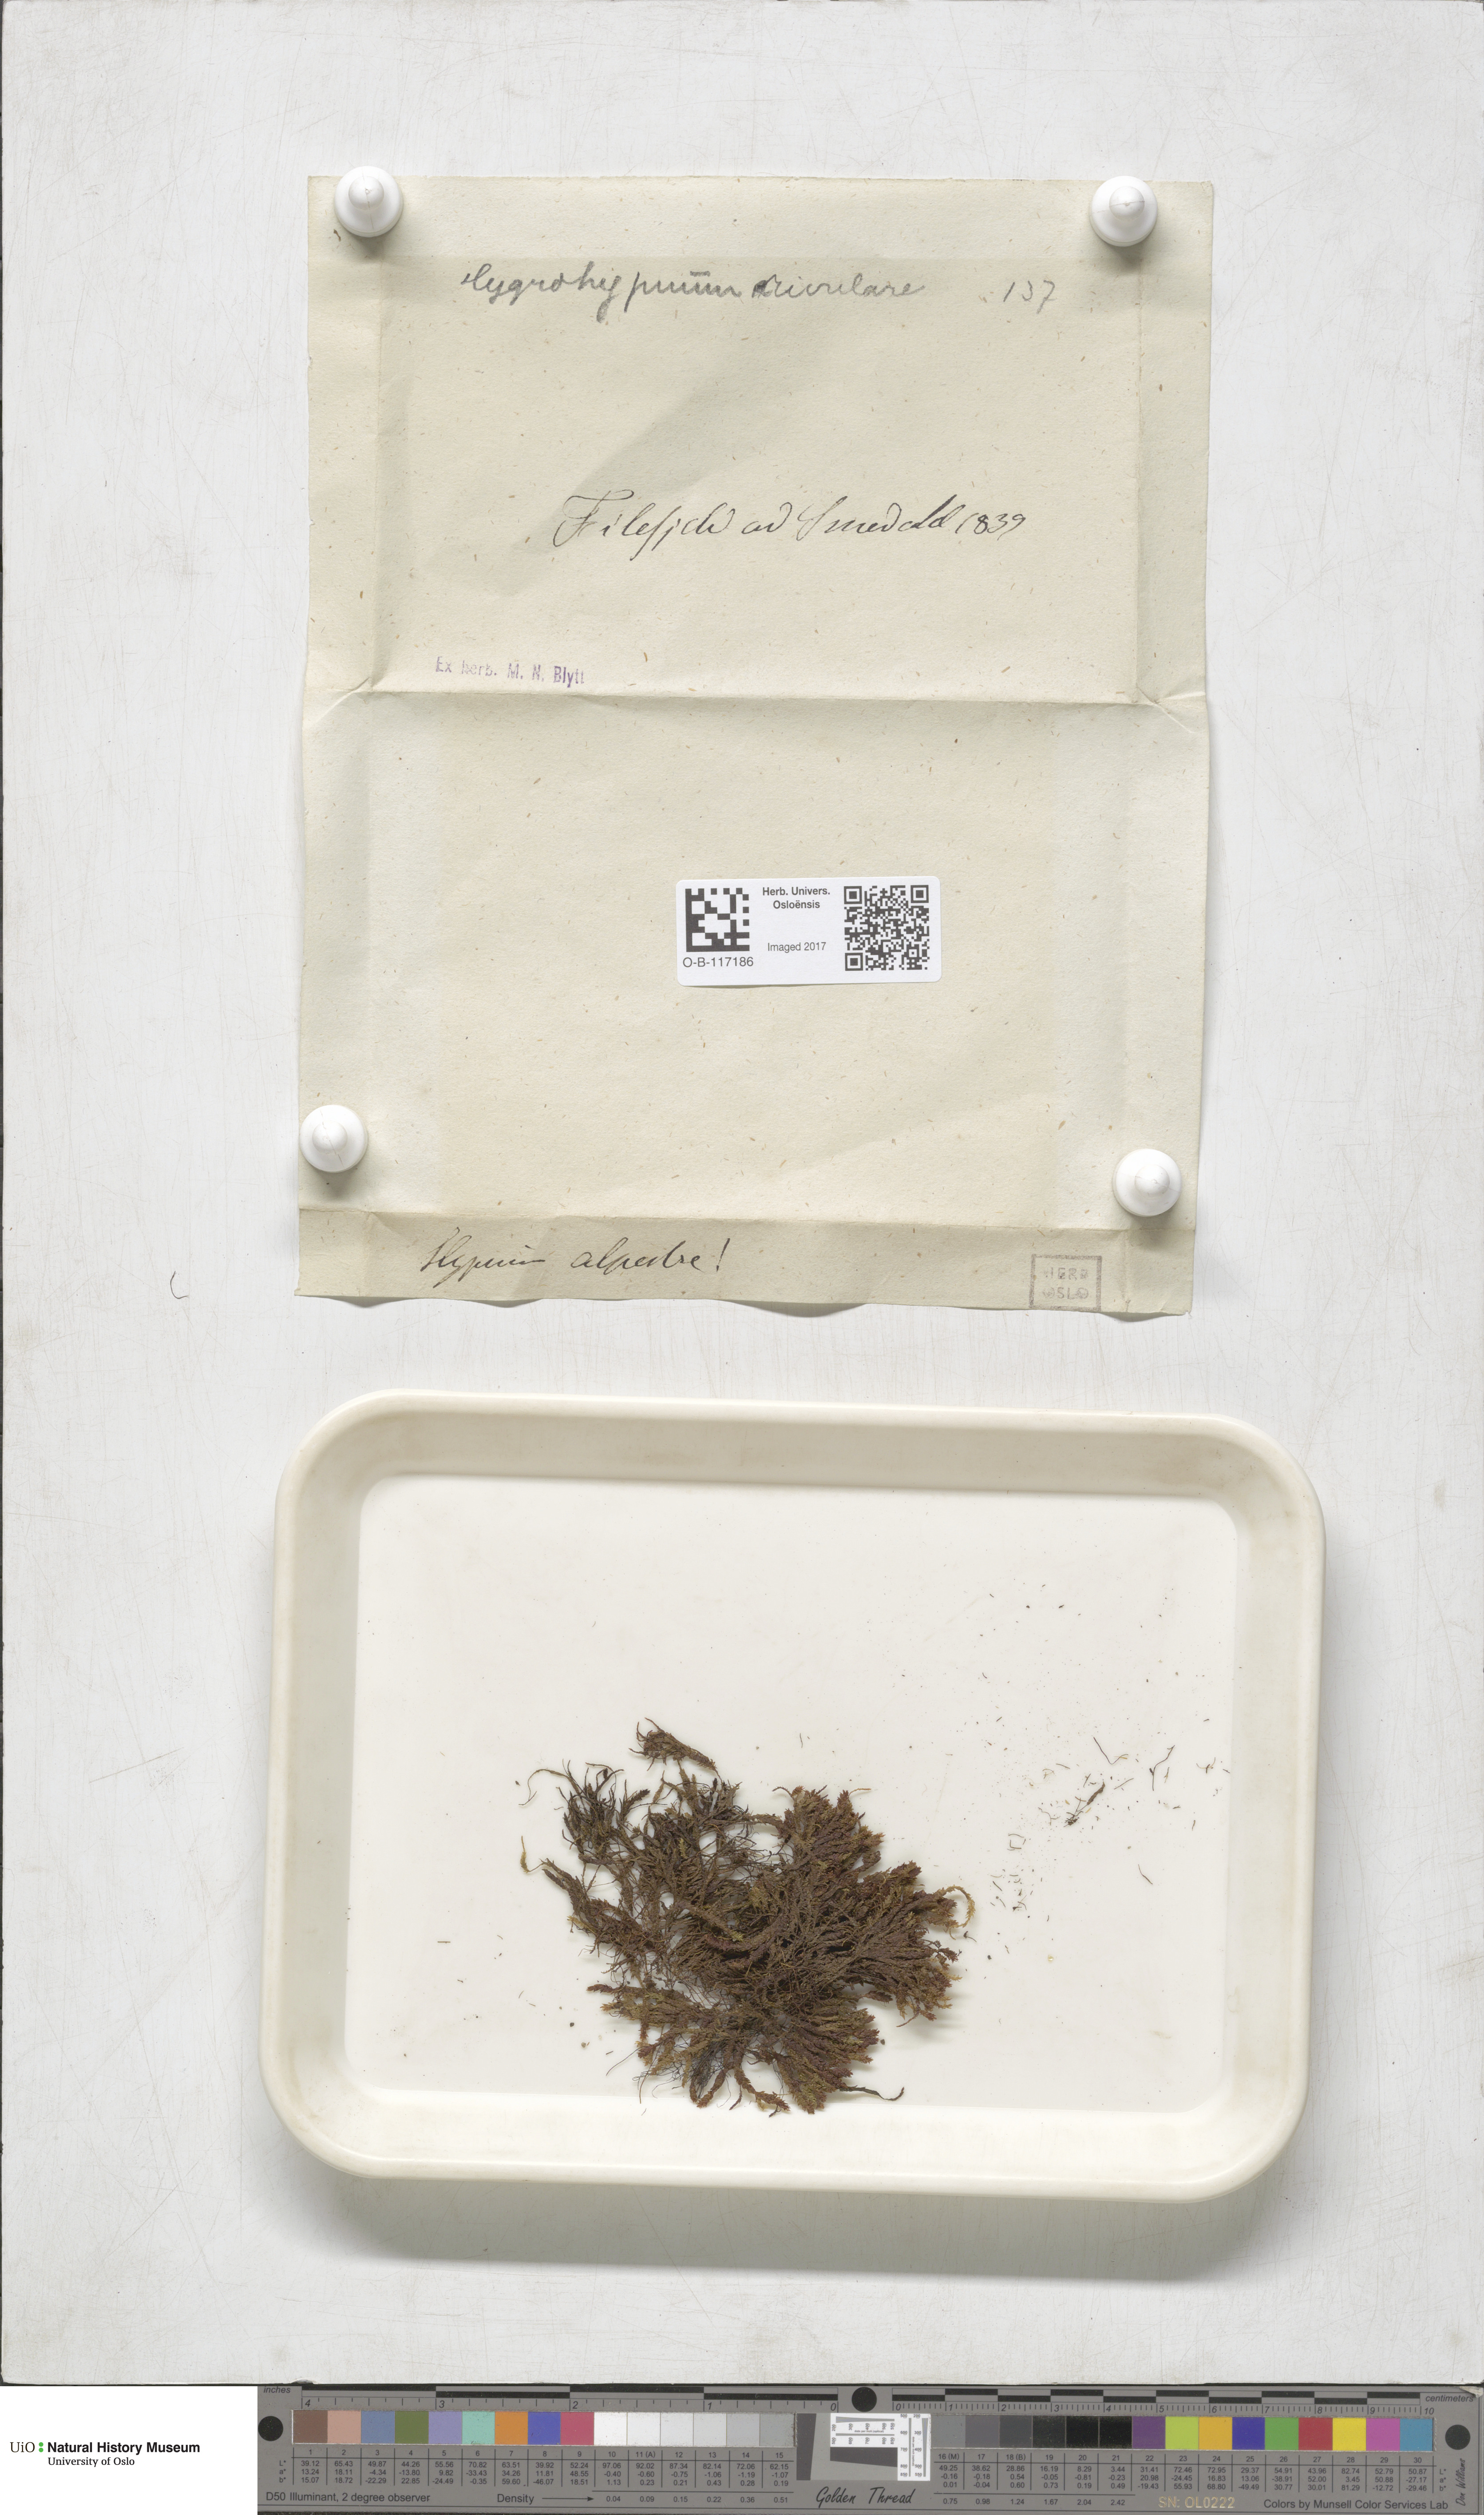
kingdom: Plantae
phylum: Bryophyta
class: Bryopsida
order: Hypnales
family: Amblystegiaceae
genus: Platyhypnum
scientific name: Platyhypnum alpestre
